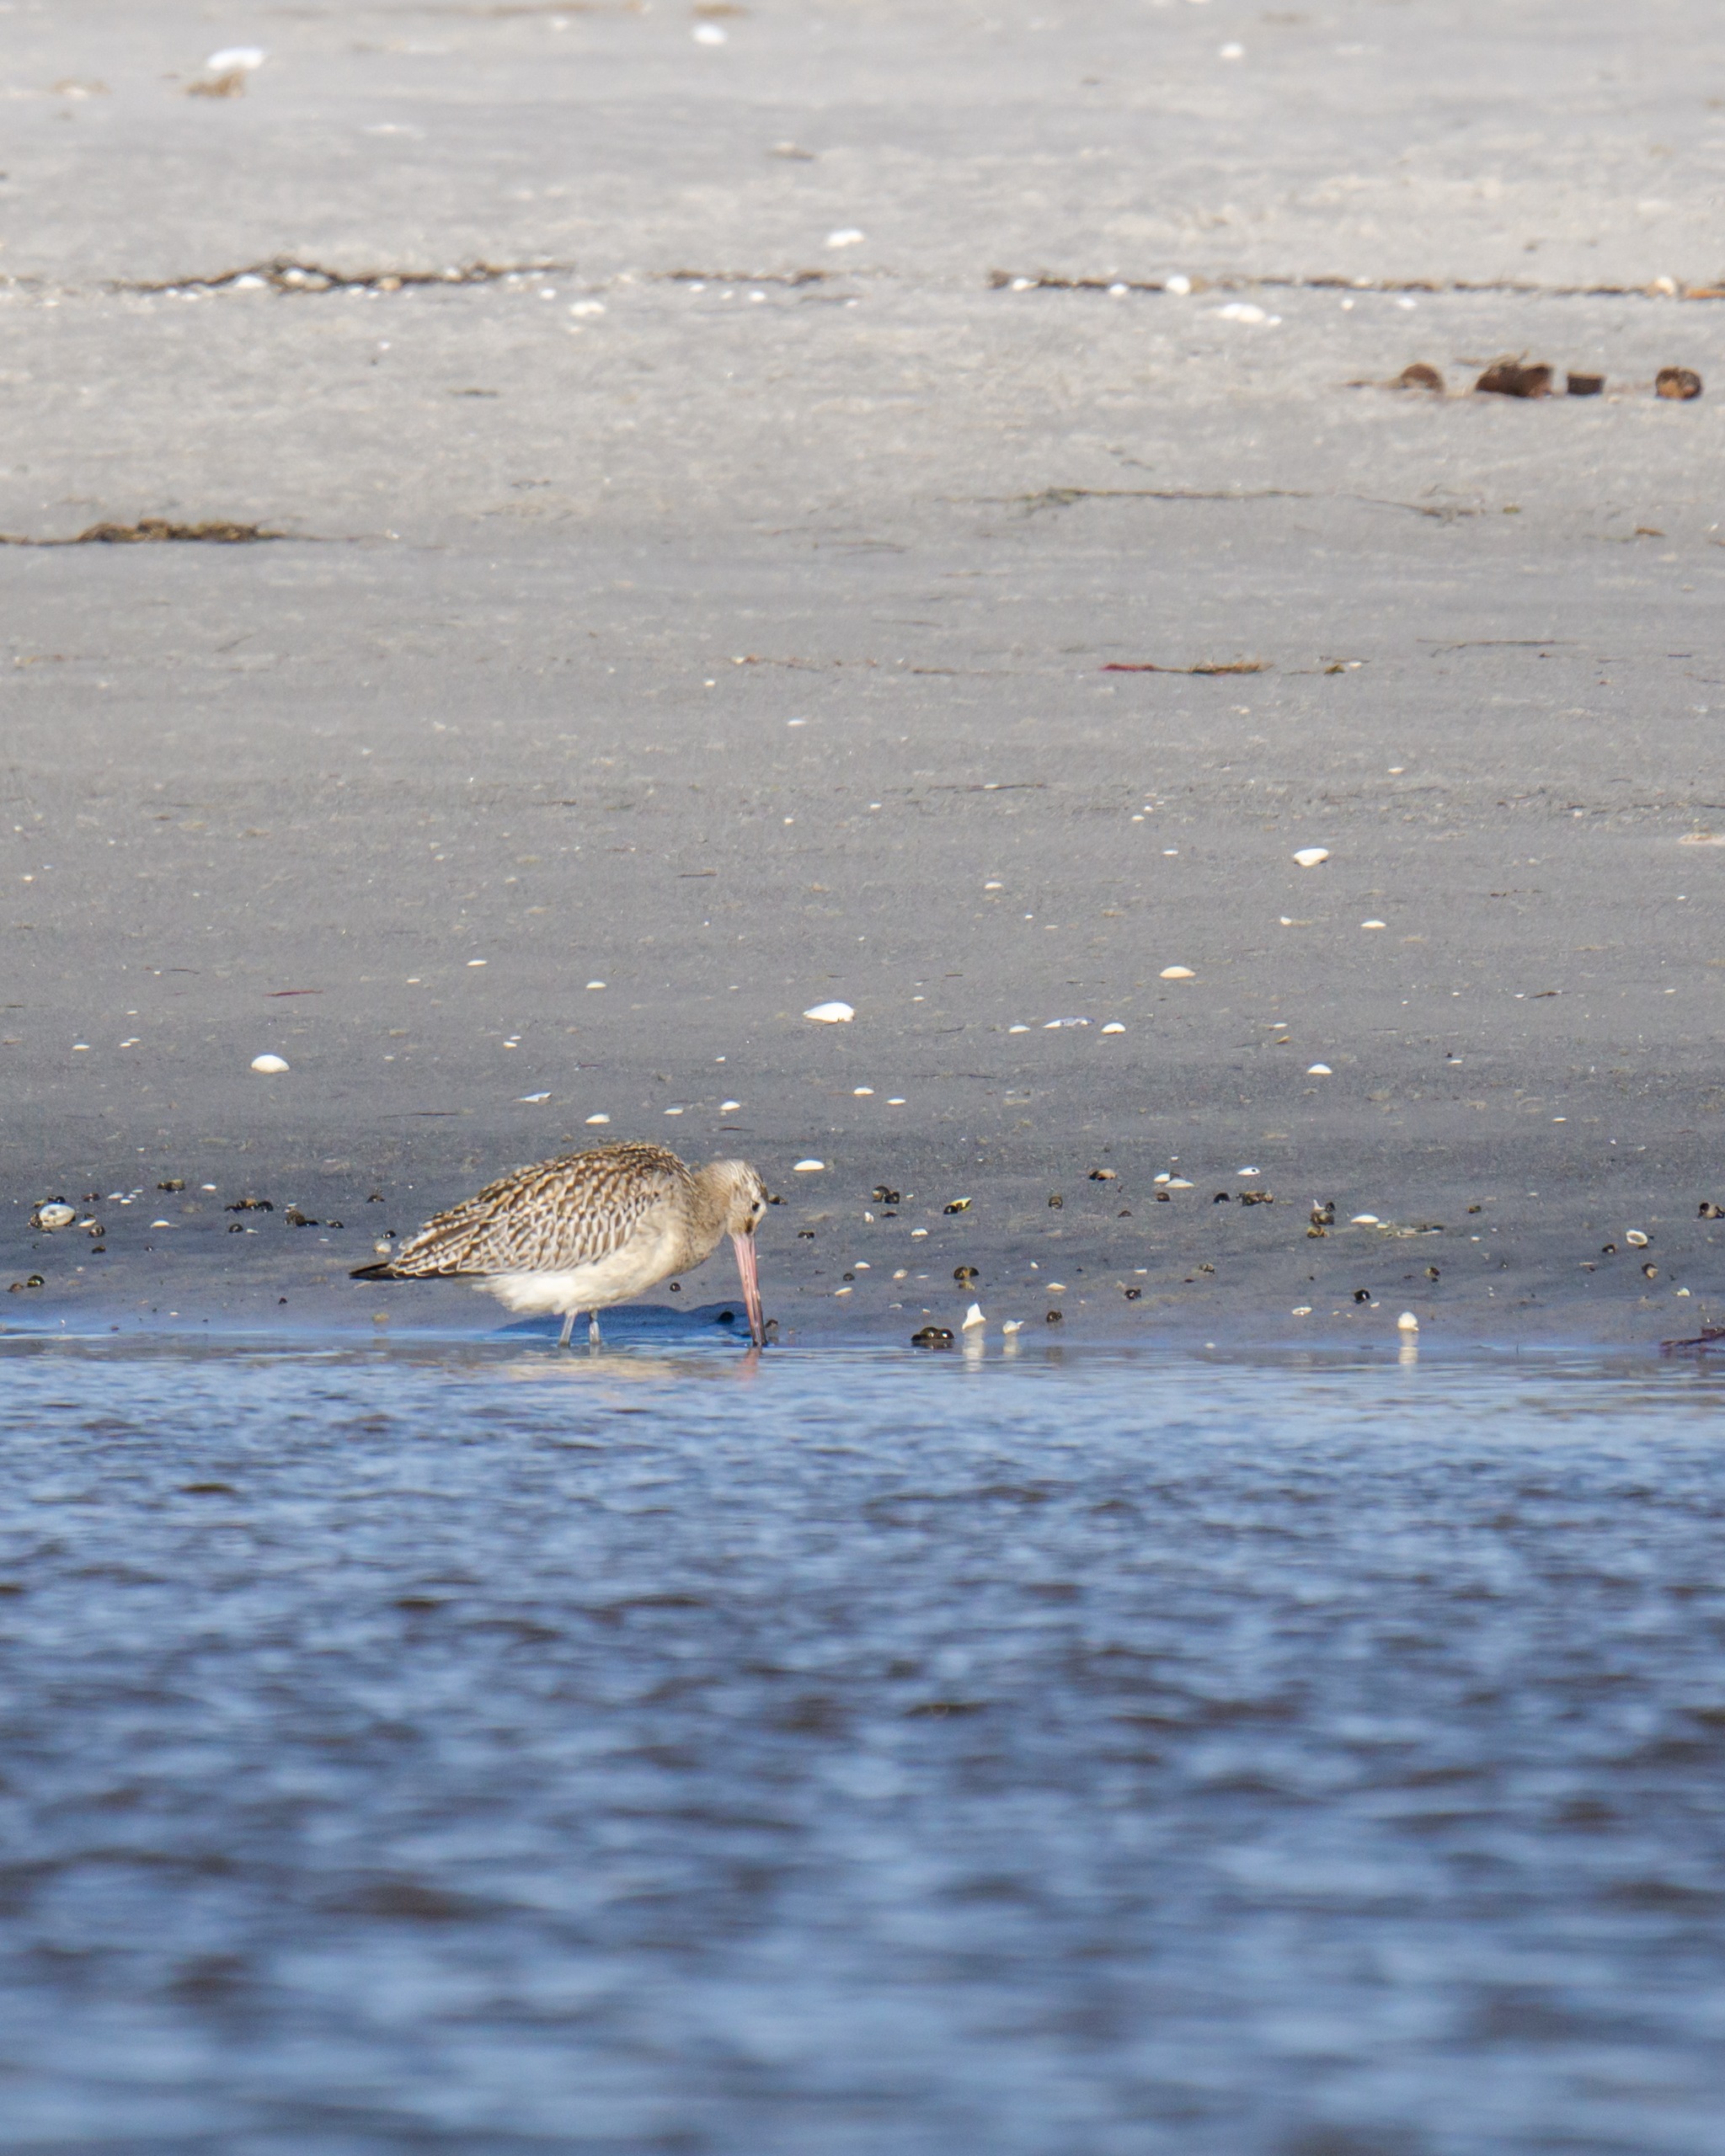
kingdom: Animalia
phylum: Chordata
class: Aves
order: Charadriiformes
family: Scolopacidae
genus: Limosa
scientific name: Limosa lapponica
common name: Lille kobbersneppe
